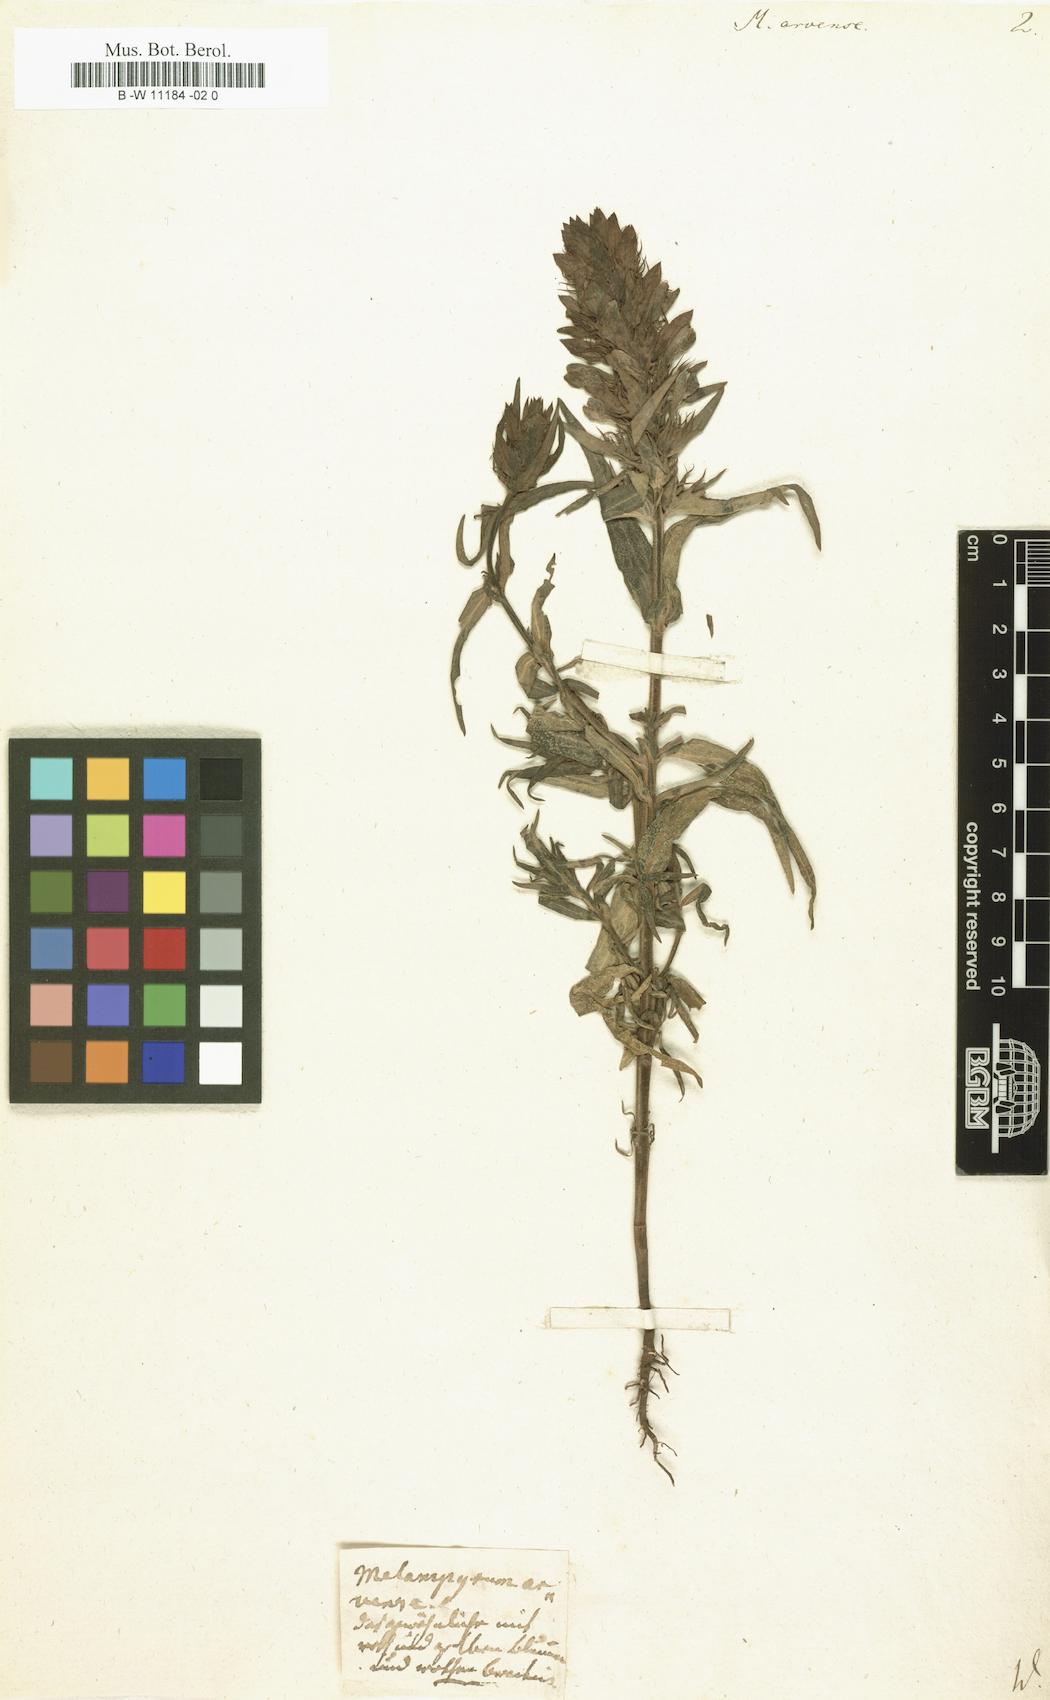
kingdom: Plantae
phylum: Tracheophyta
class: Magnoliopsida
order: Lamiales
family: Orobanchaceae
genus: Melampyrum
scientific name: Melampyrum arvense
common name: Field cow-wheat
